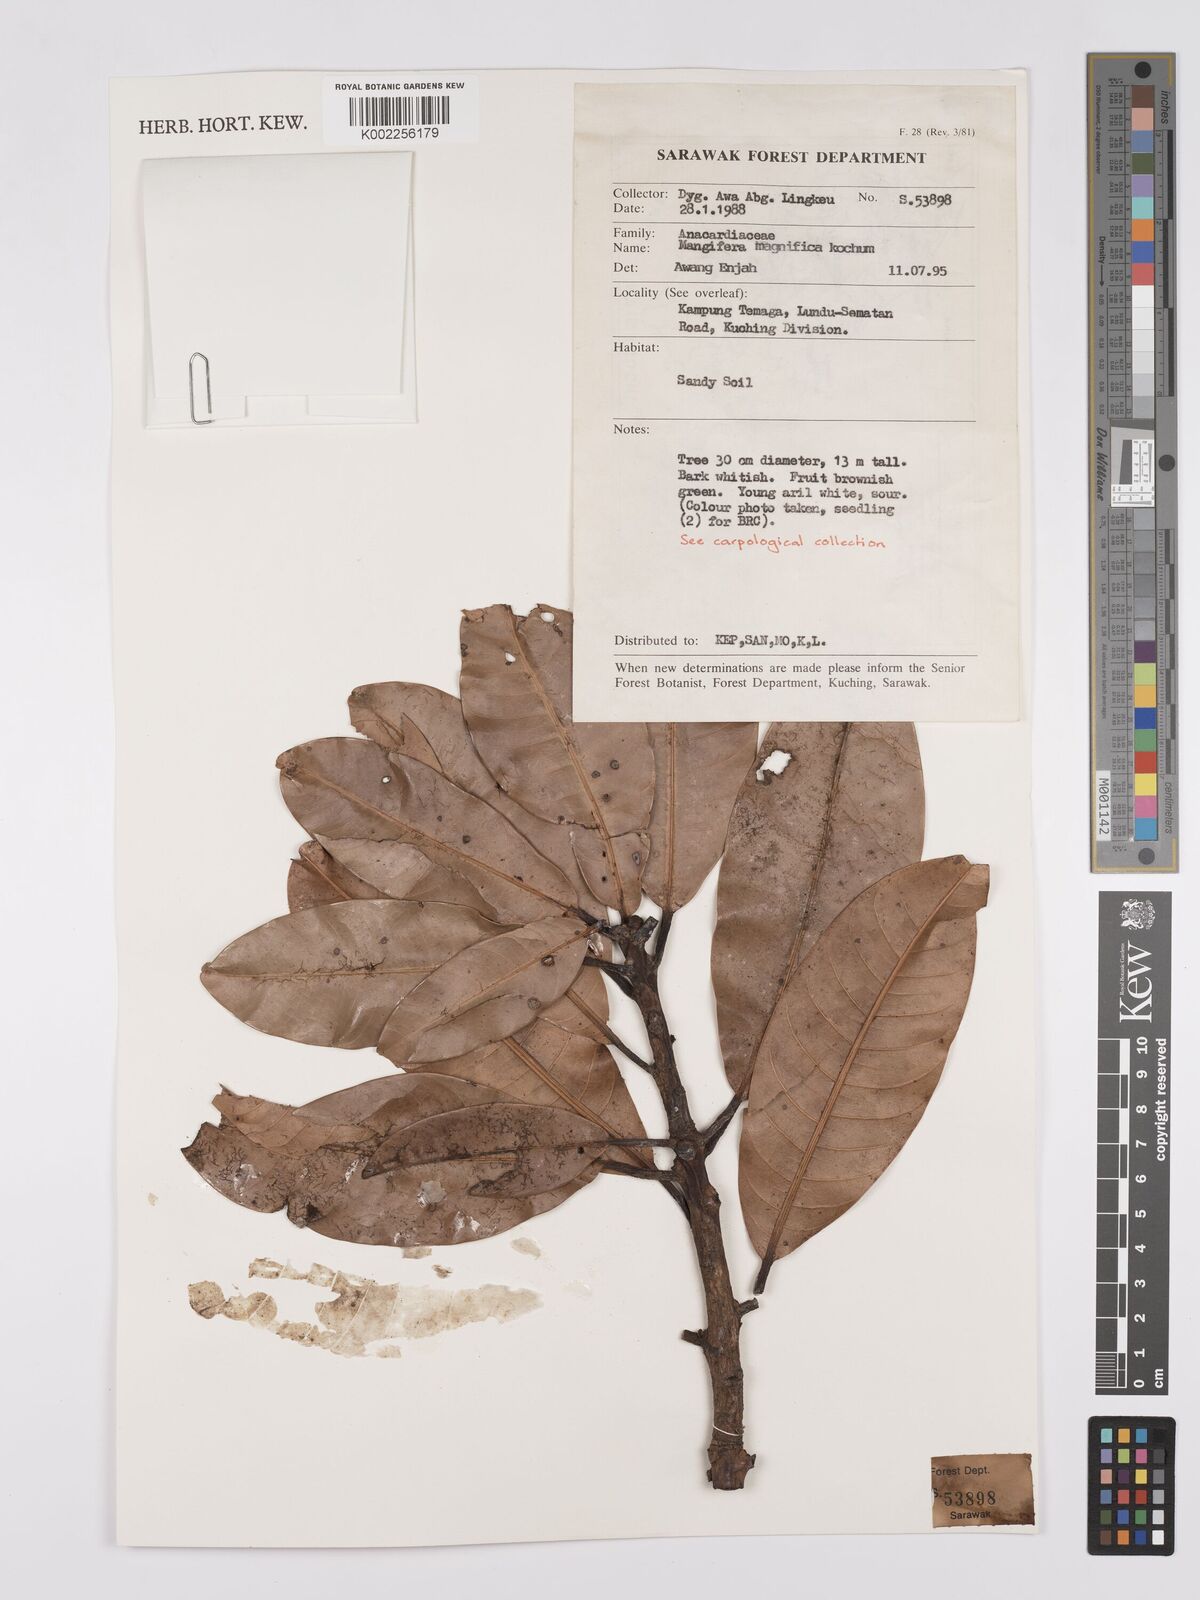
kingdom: Plantae
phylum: Tracheophyta
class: Magnoliopsida
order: Sapindales
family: Anacardiaceae
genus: Mangifera
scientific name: Mangifera magnifica
